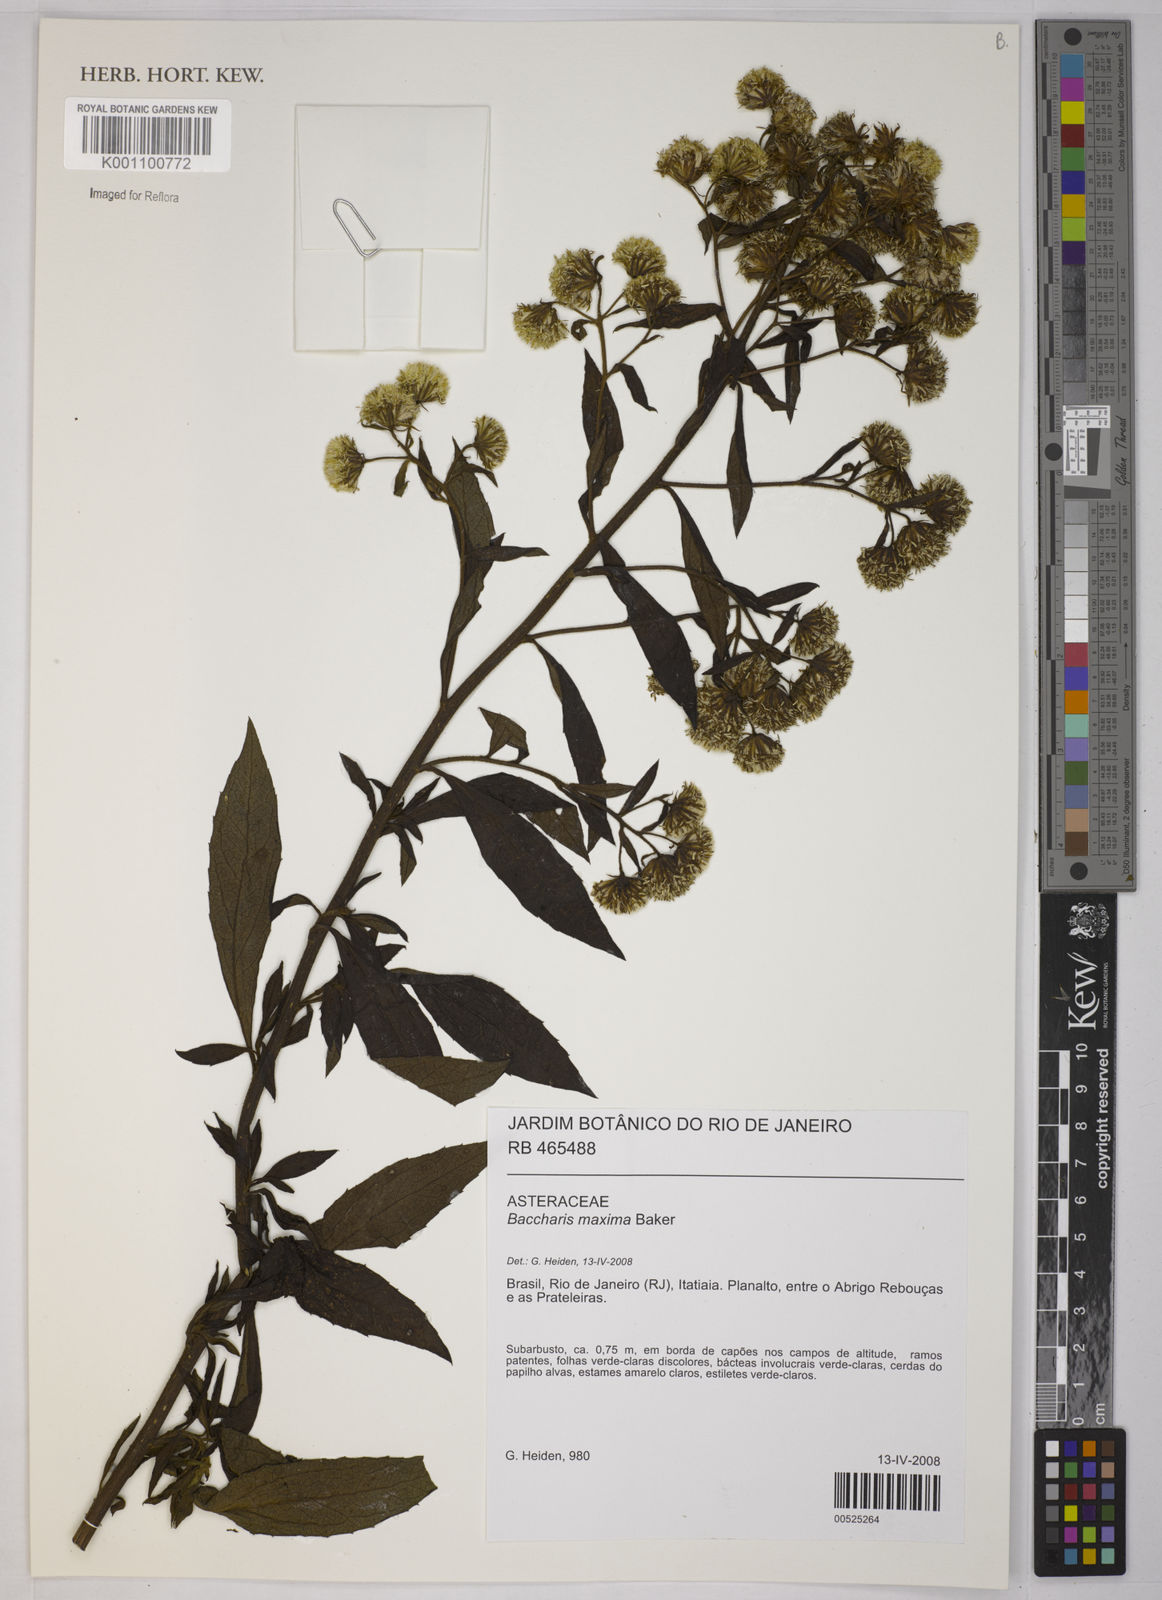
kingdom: Plantae
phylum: Tracheophyta
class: Magnoliopsida
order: Asterales
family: Asteraceae
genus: Baccharis
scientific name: Baccharis maxima
